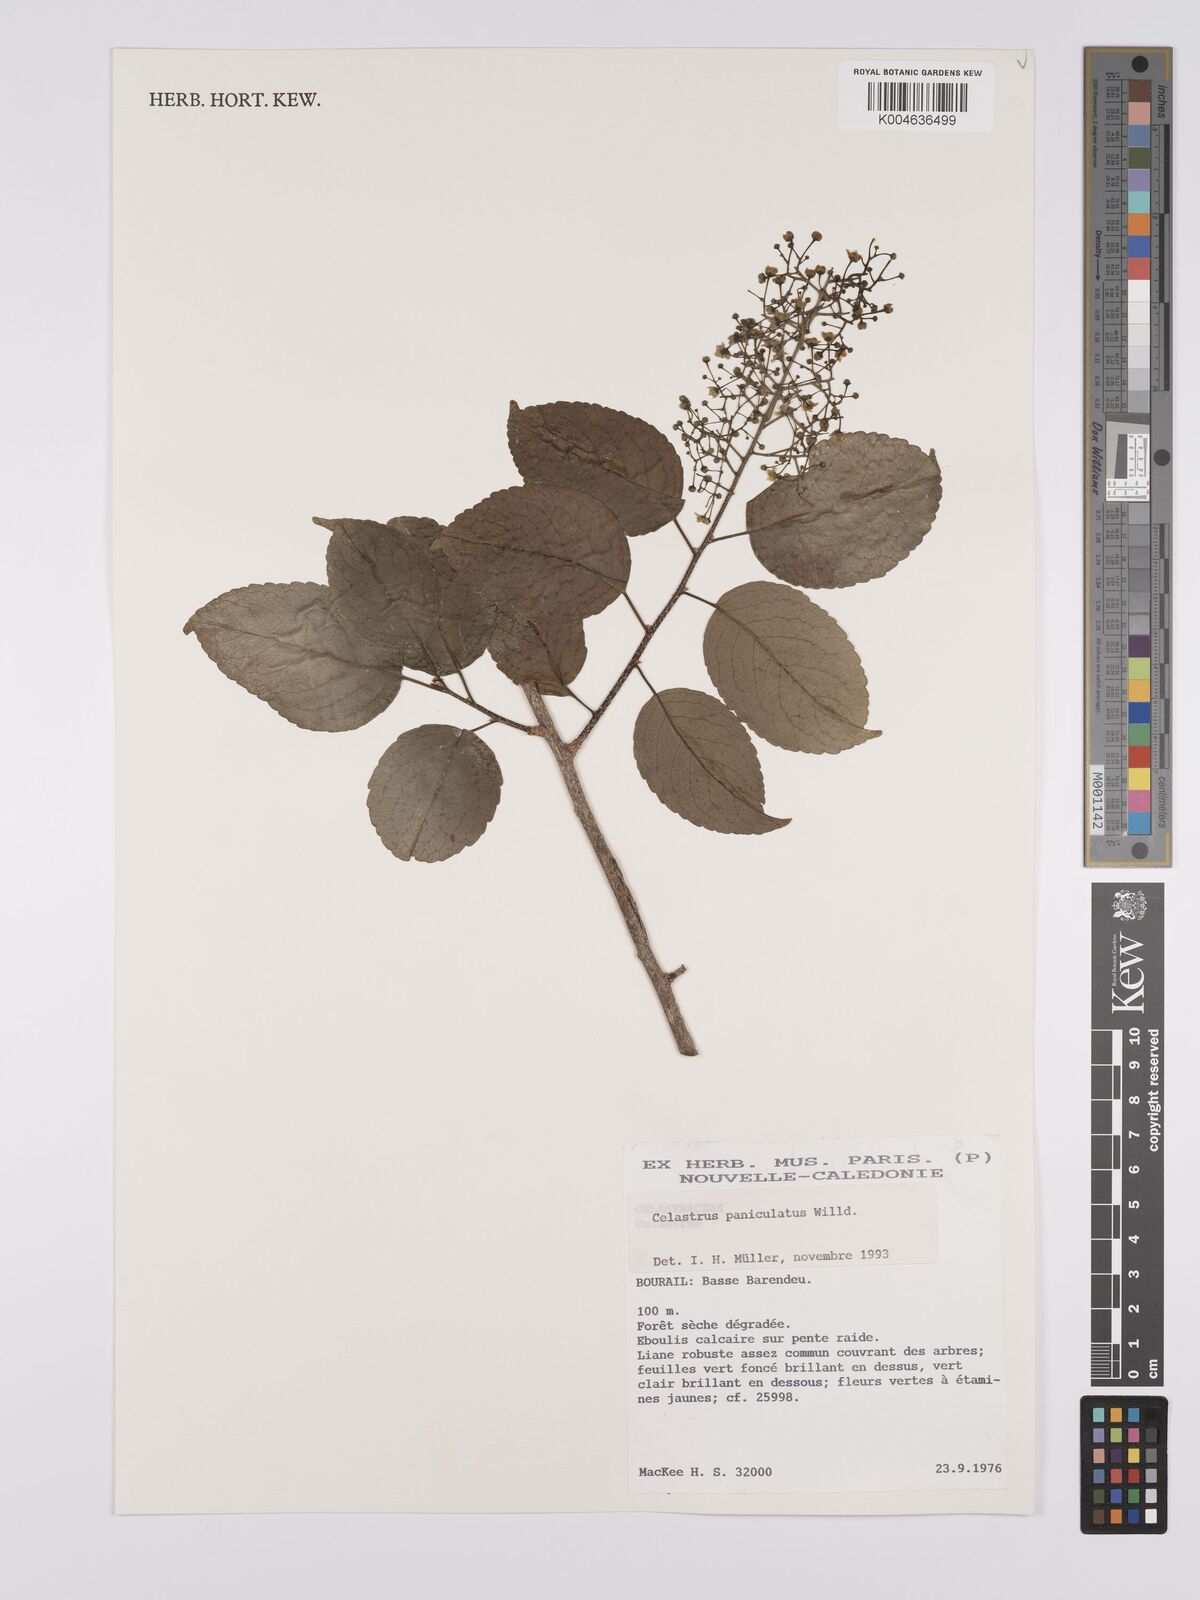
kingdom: Plantae
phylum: Tracheophyta
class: Magnoliopsida
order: Celastrales
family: Celastraceae
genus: Celastrus
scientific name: Celastrus paniculatus
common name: Oriental bittersweet; staff vine
